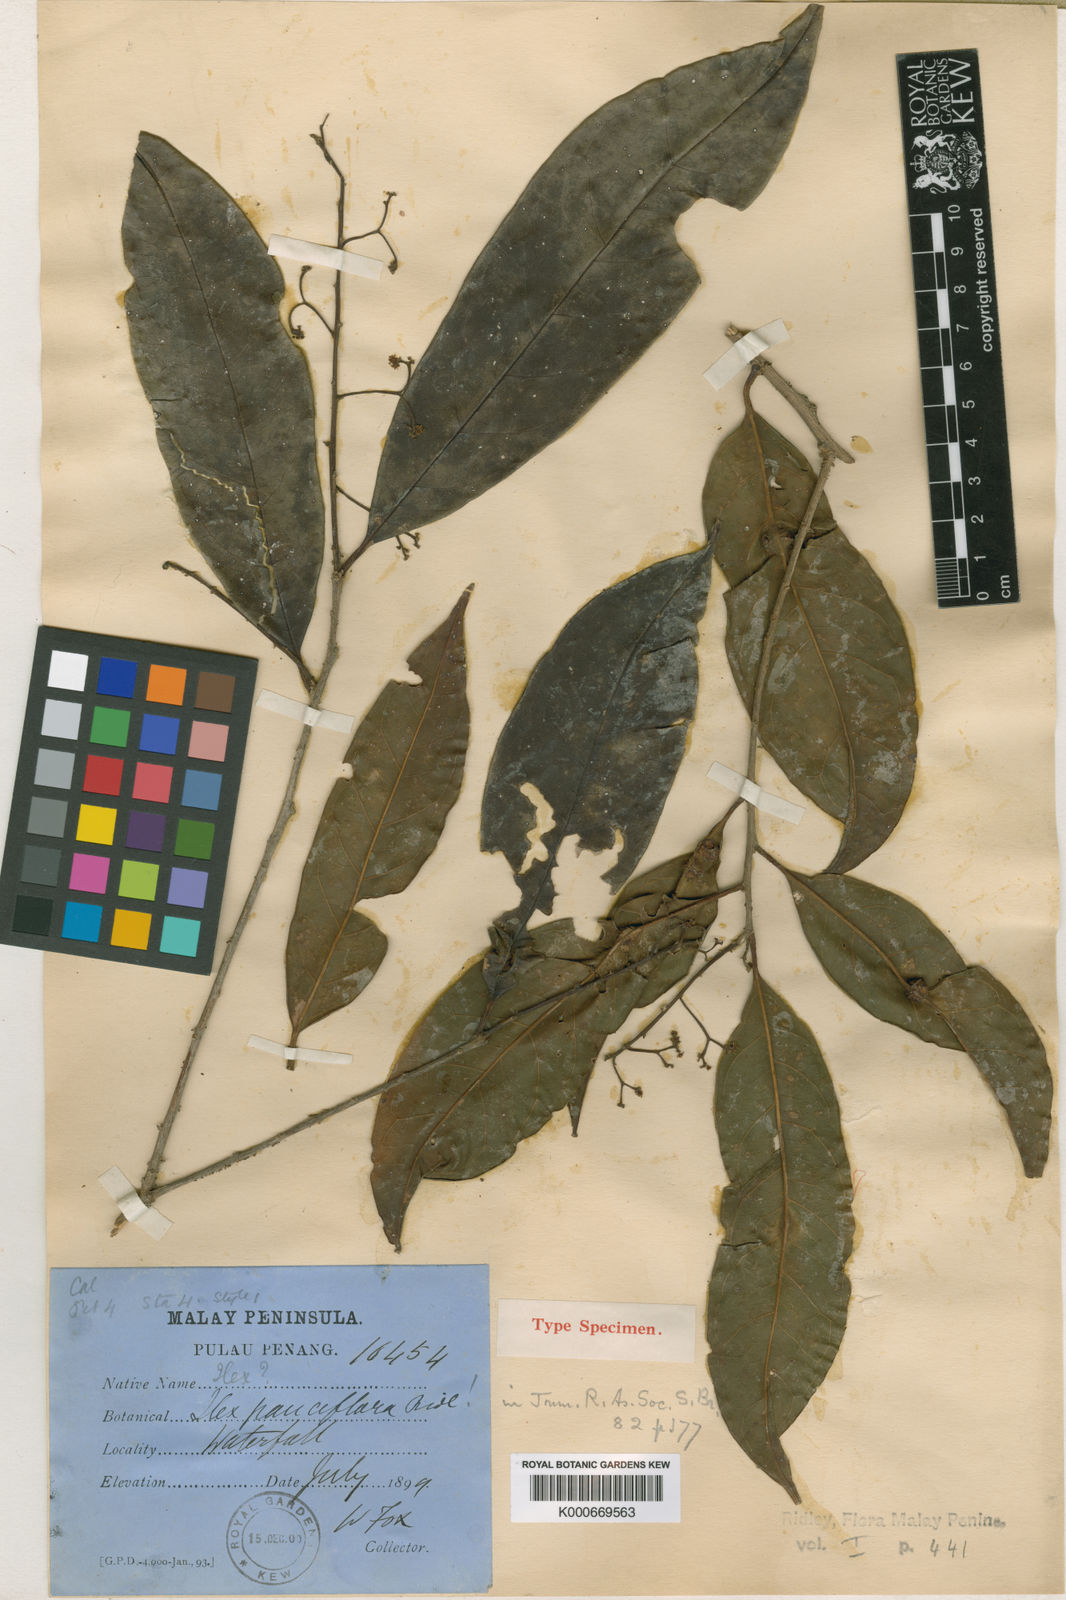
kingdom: Plantae
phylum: Tracheophyta
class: Magnoliopsida
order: Aquifoliales
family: Aquifoliaceae
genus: Ilex
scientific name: Ilex pauciflora
